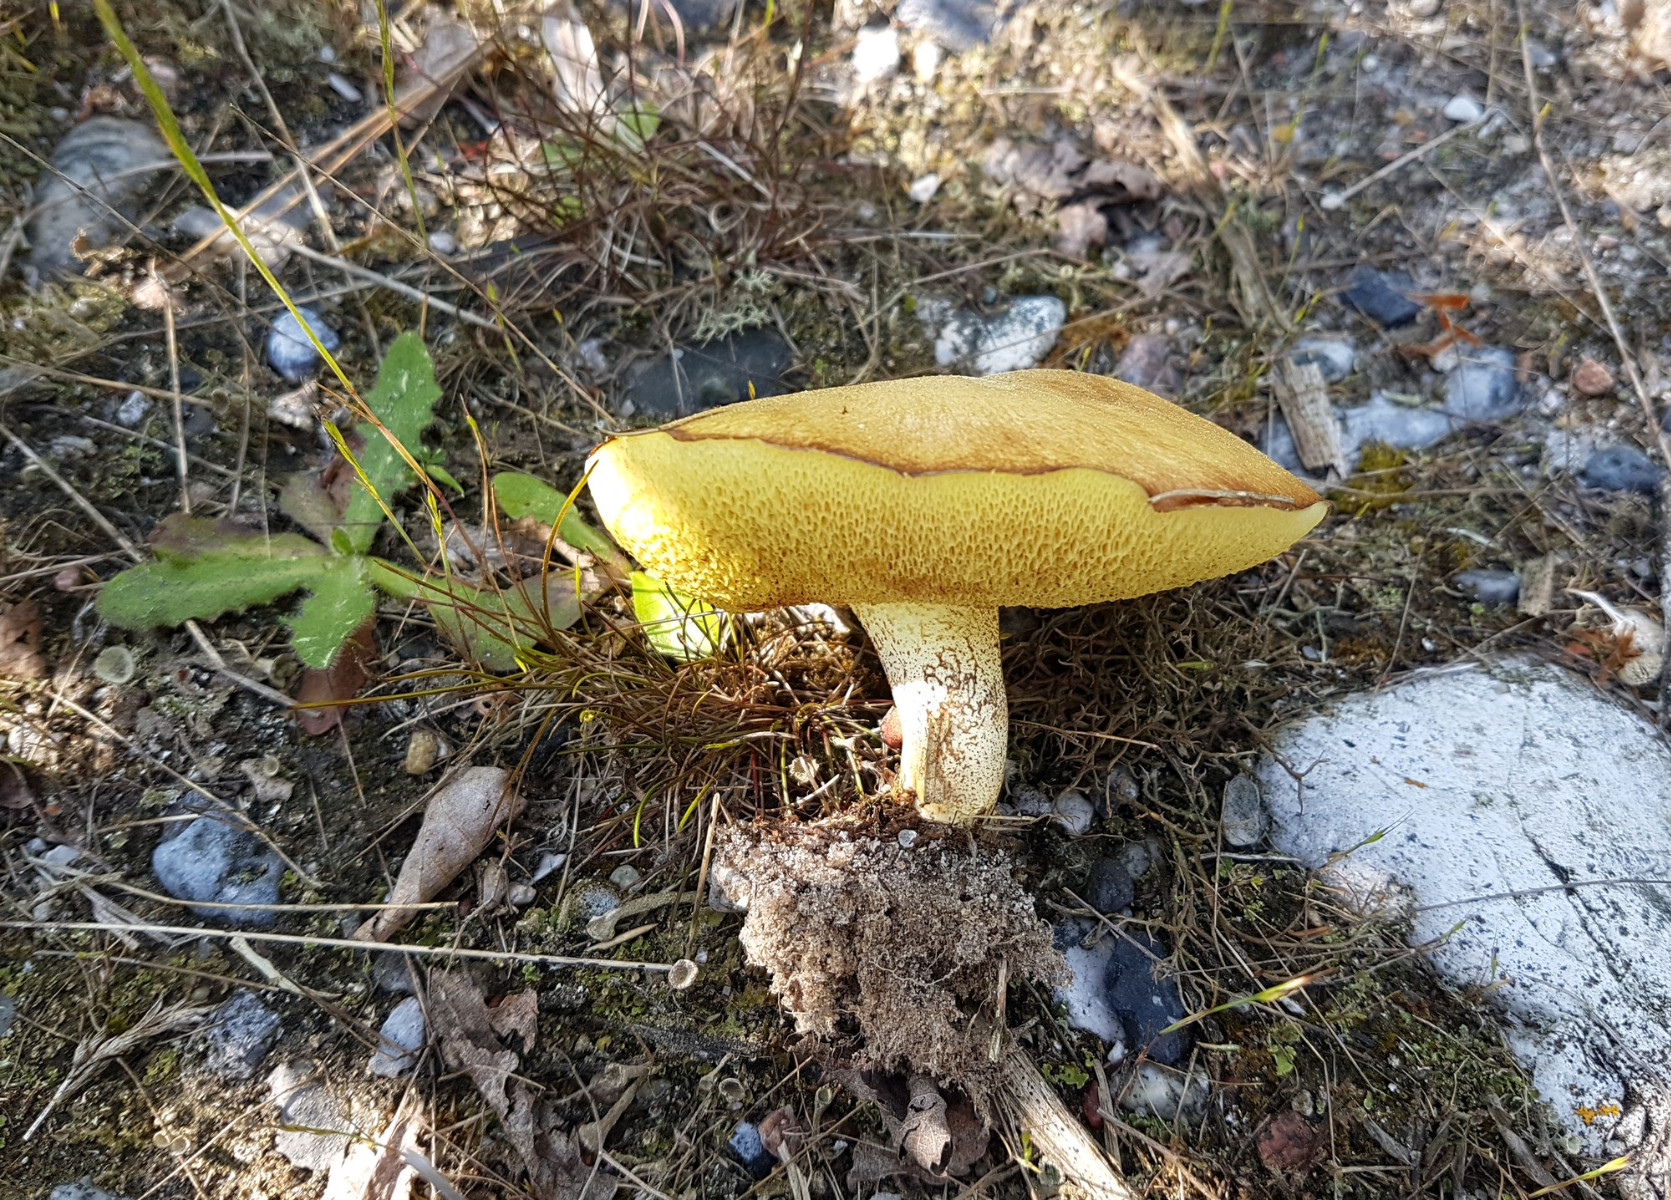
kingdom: Fungi
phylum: Basidiomycota
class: Agaricomycetes
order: Boletales
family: Suillaceae
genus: Suillus
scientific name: Suillus granulatus
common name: kornet slimrørhat
